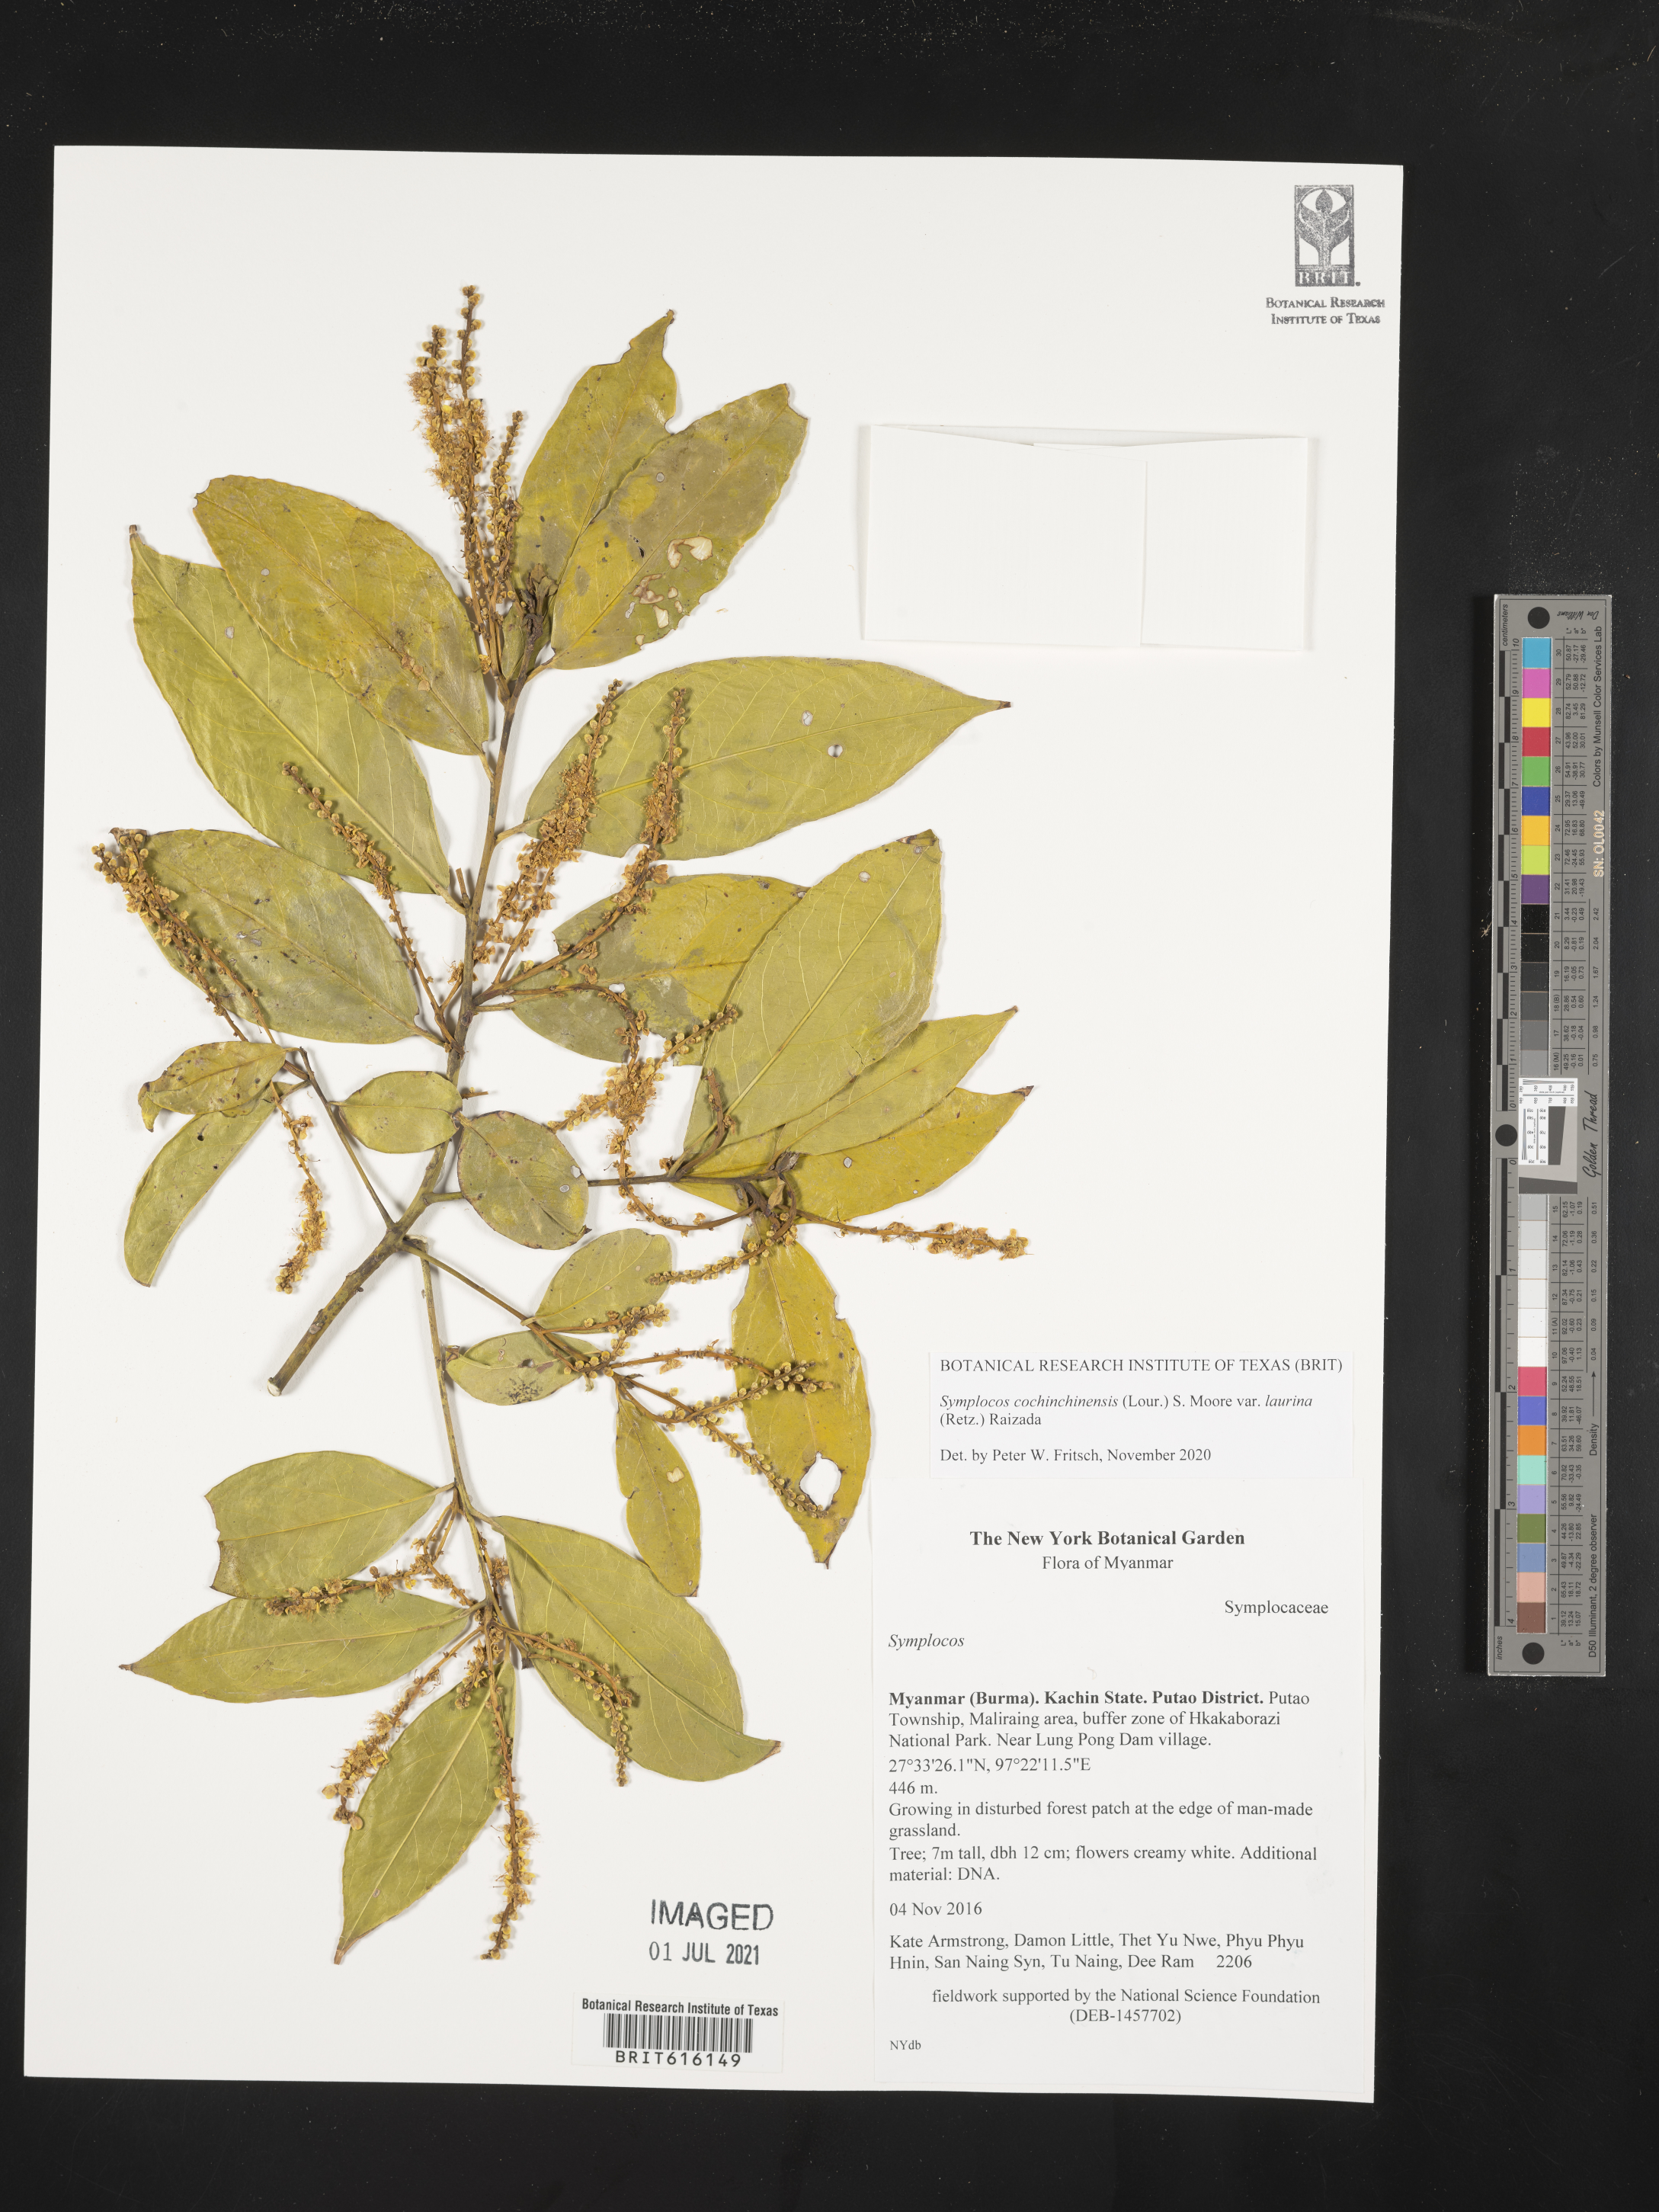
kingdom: Plantae
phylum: Tracheophyta
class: Magnoliopsida
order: Ericales
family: Symplocaceae
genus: Symplocos
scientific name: Symplocos
